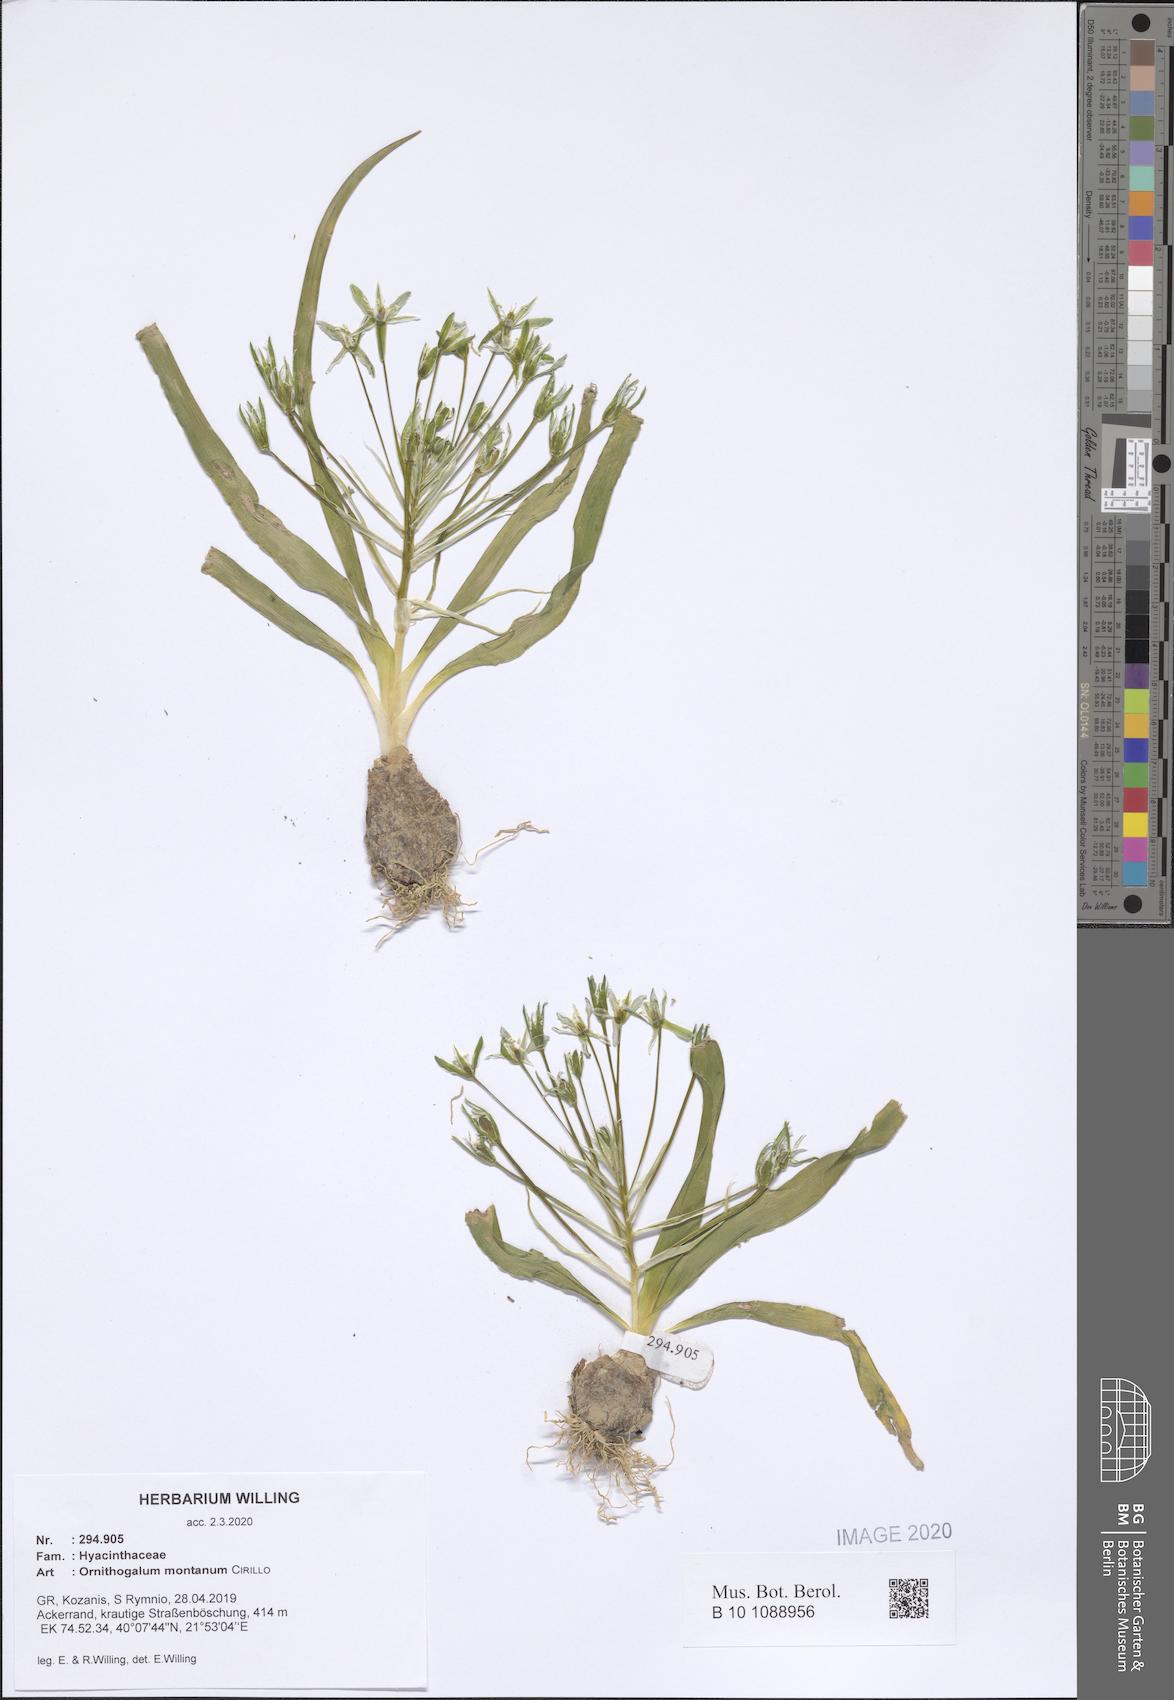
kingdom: Plantae
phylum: Tracheophyta
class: Liliopsida
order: Asparagales
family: Asparagaceae
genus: Ornithogalum
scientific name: Ornithogalum montanum
